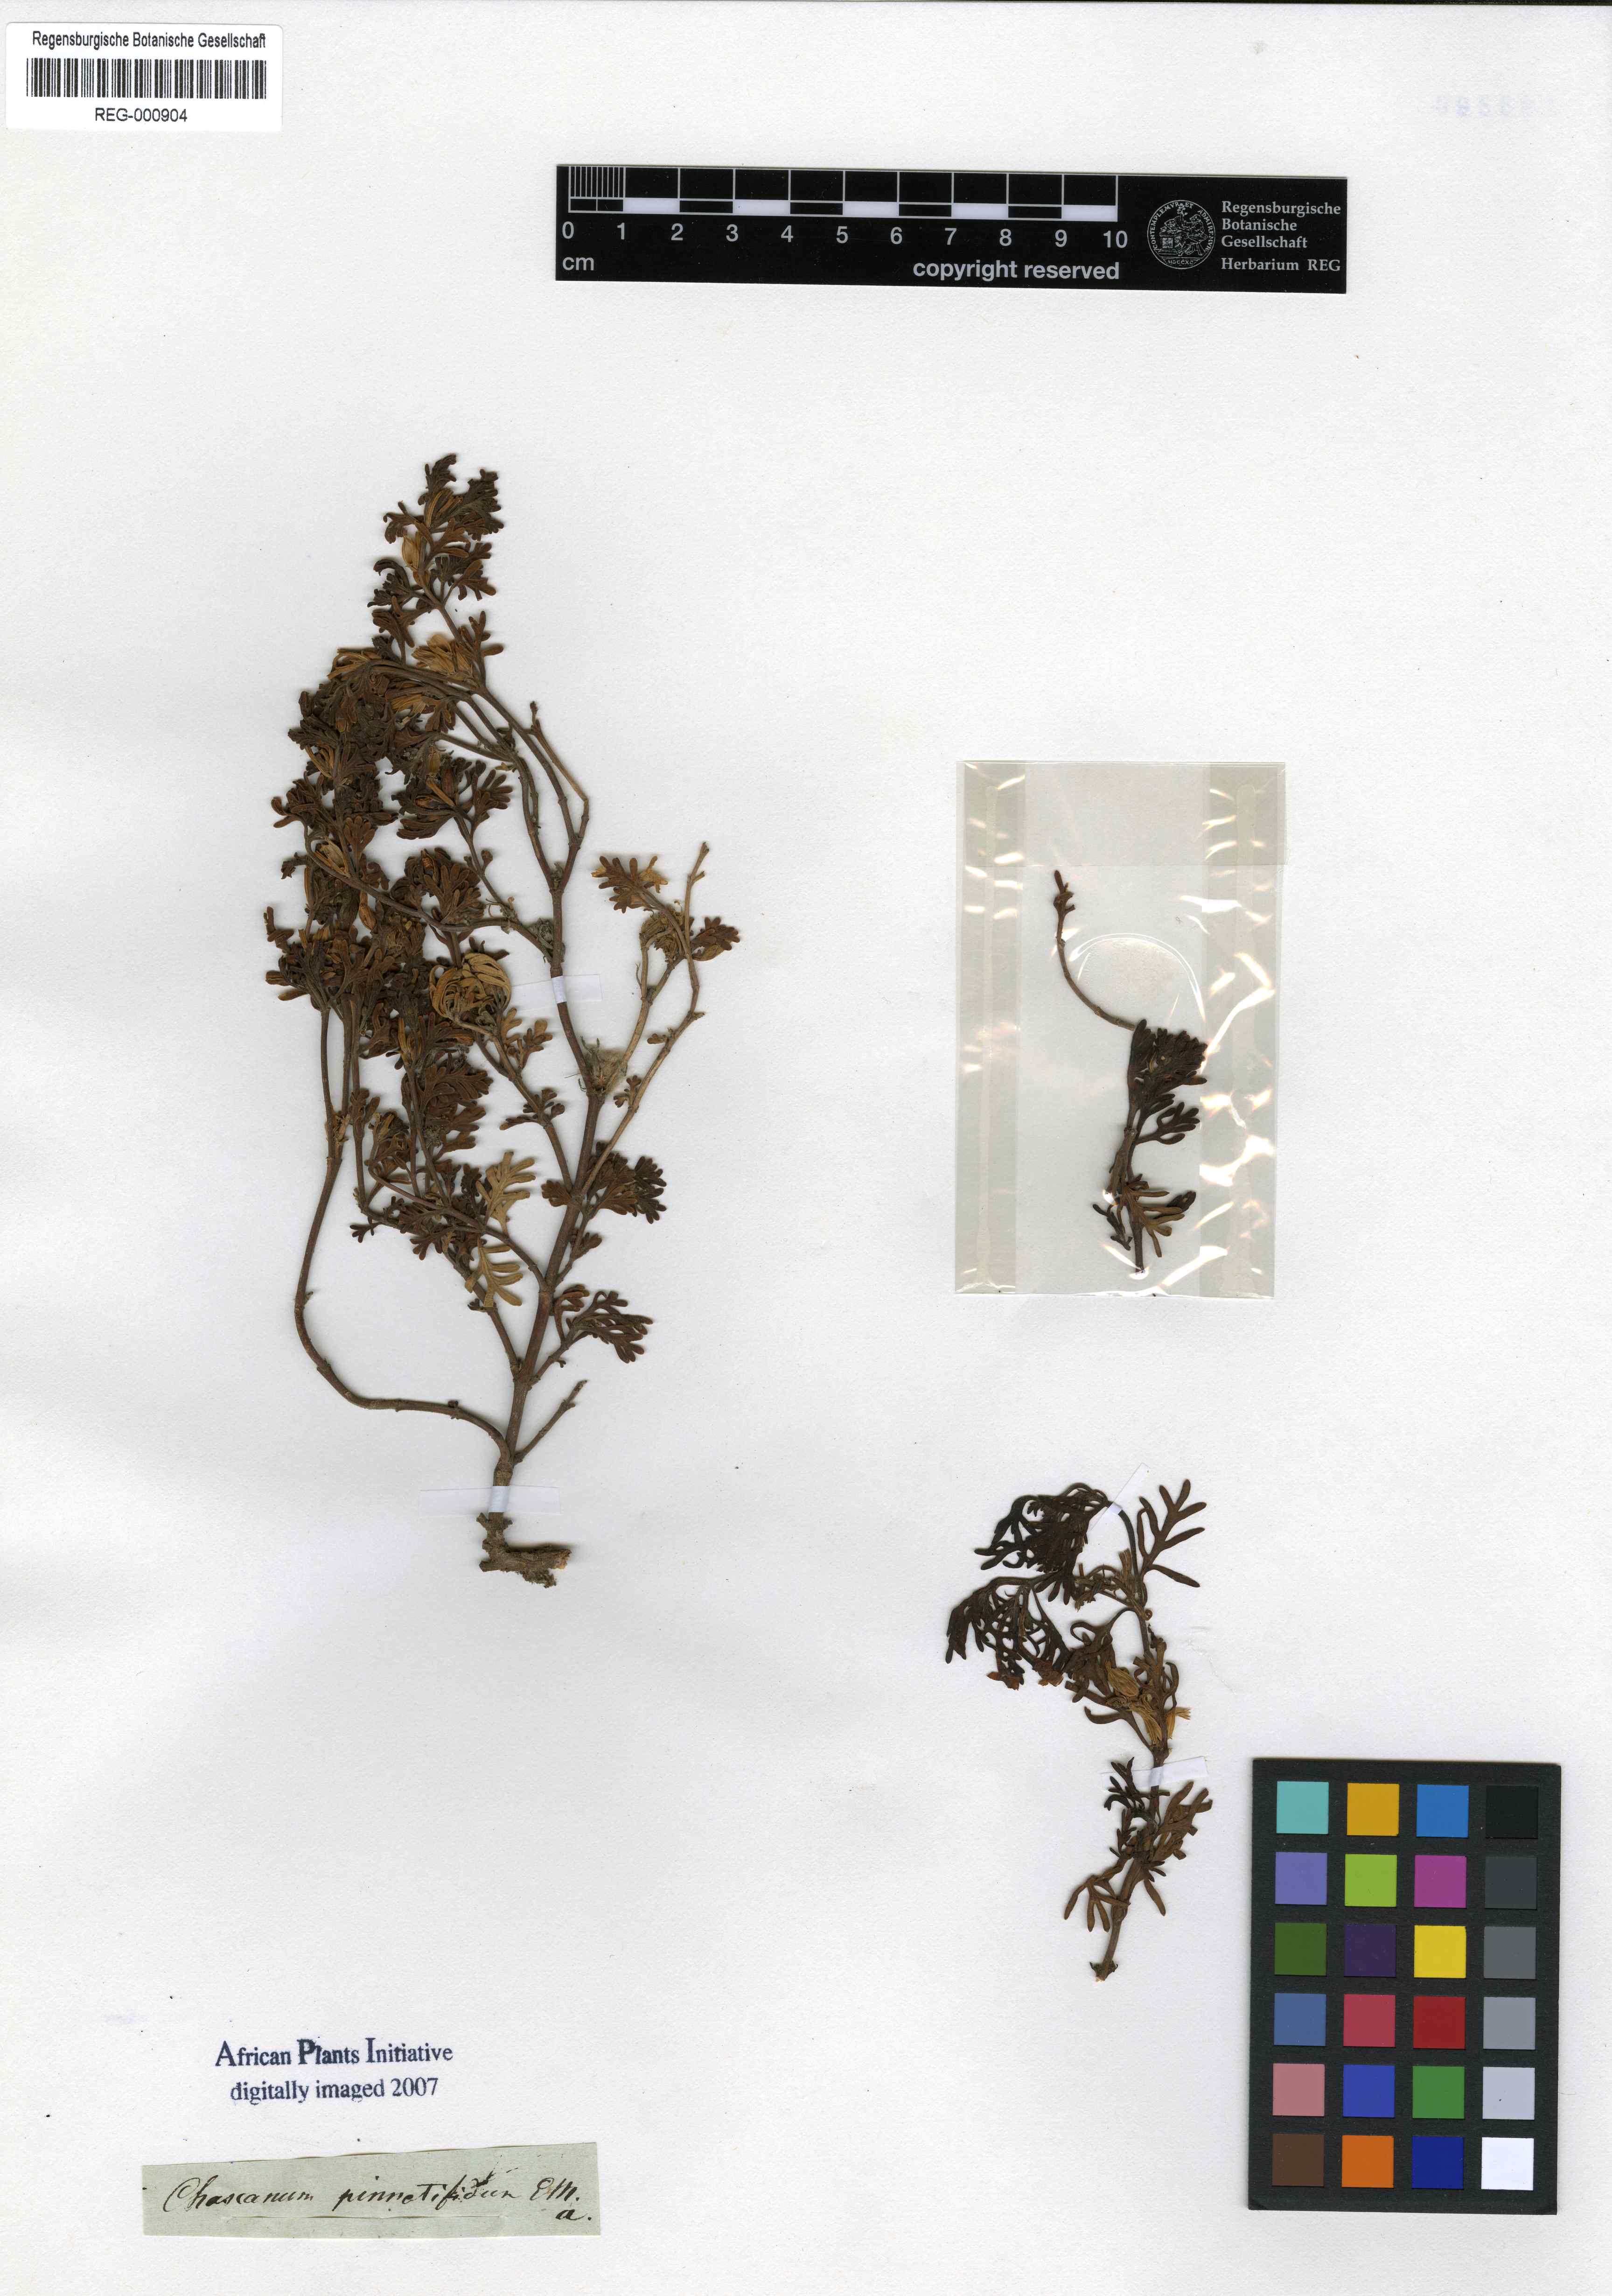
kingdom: Plantae
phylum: Tracheophyta
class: Magnoliopsida
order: Lamiales
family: Verbenaceae
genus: Chascanum
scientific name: Chascanum pinnatifidum
